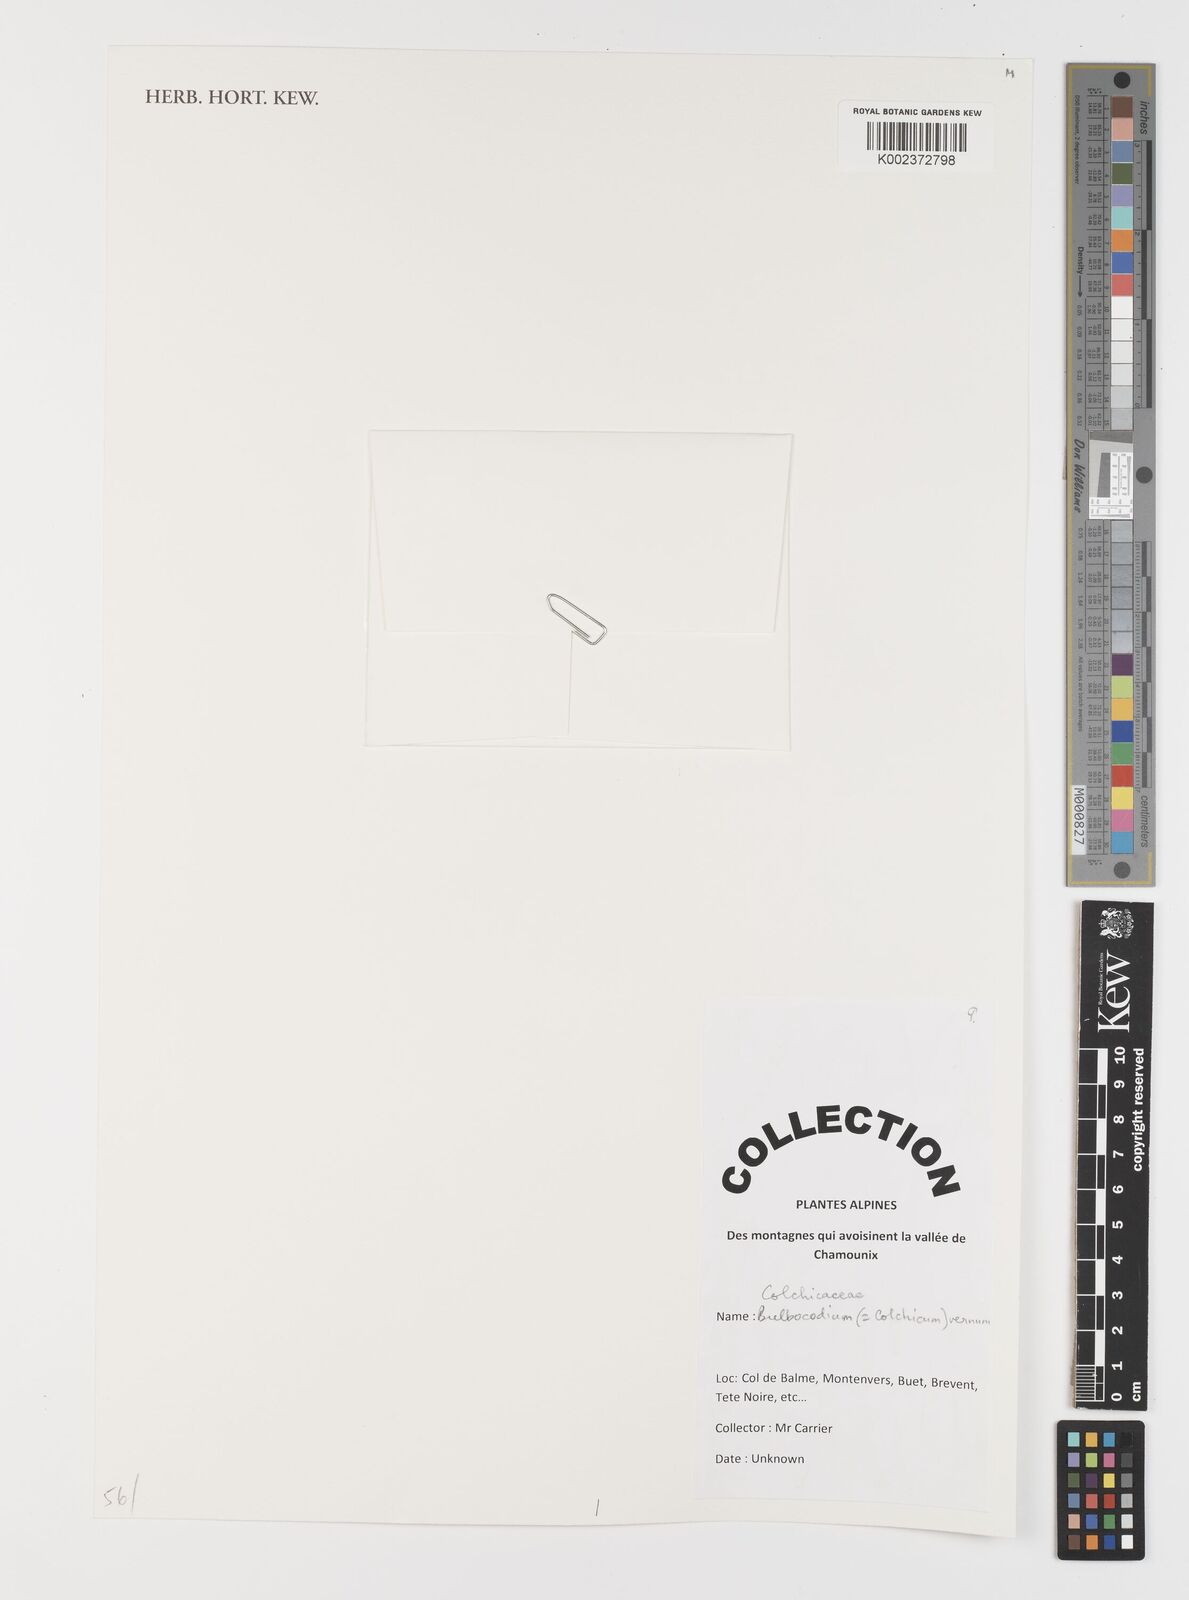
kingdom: Plantae
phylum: Tracheophyta
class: Liliopsida
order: Liliales
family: Colchicaceae
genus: Colchicum
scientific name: Colchicum
